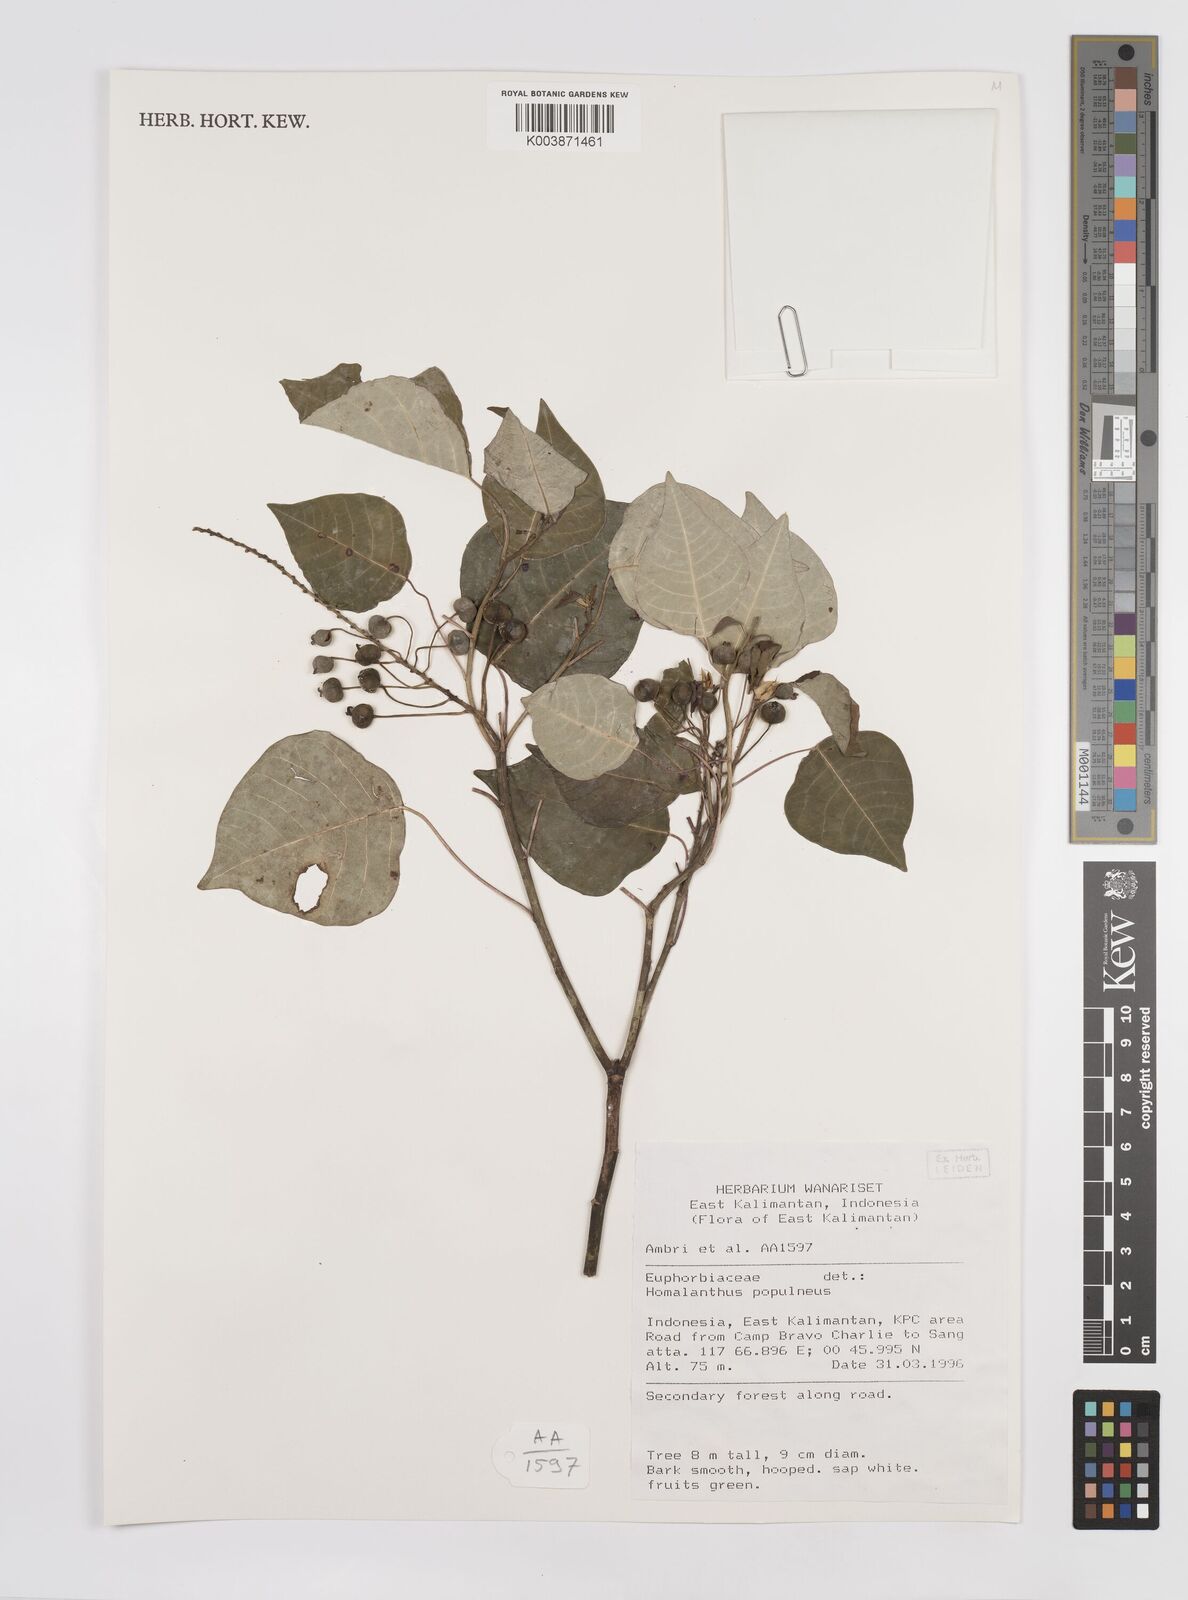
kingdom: Plantae
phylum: Tracheophyta
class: Magnoliopsida
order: Malpighiales
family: Euphorbiaceae
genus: Homalanthus
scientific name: Homalanthus populneus
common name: Spurge
